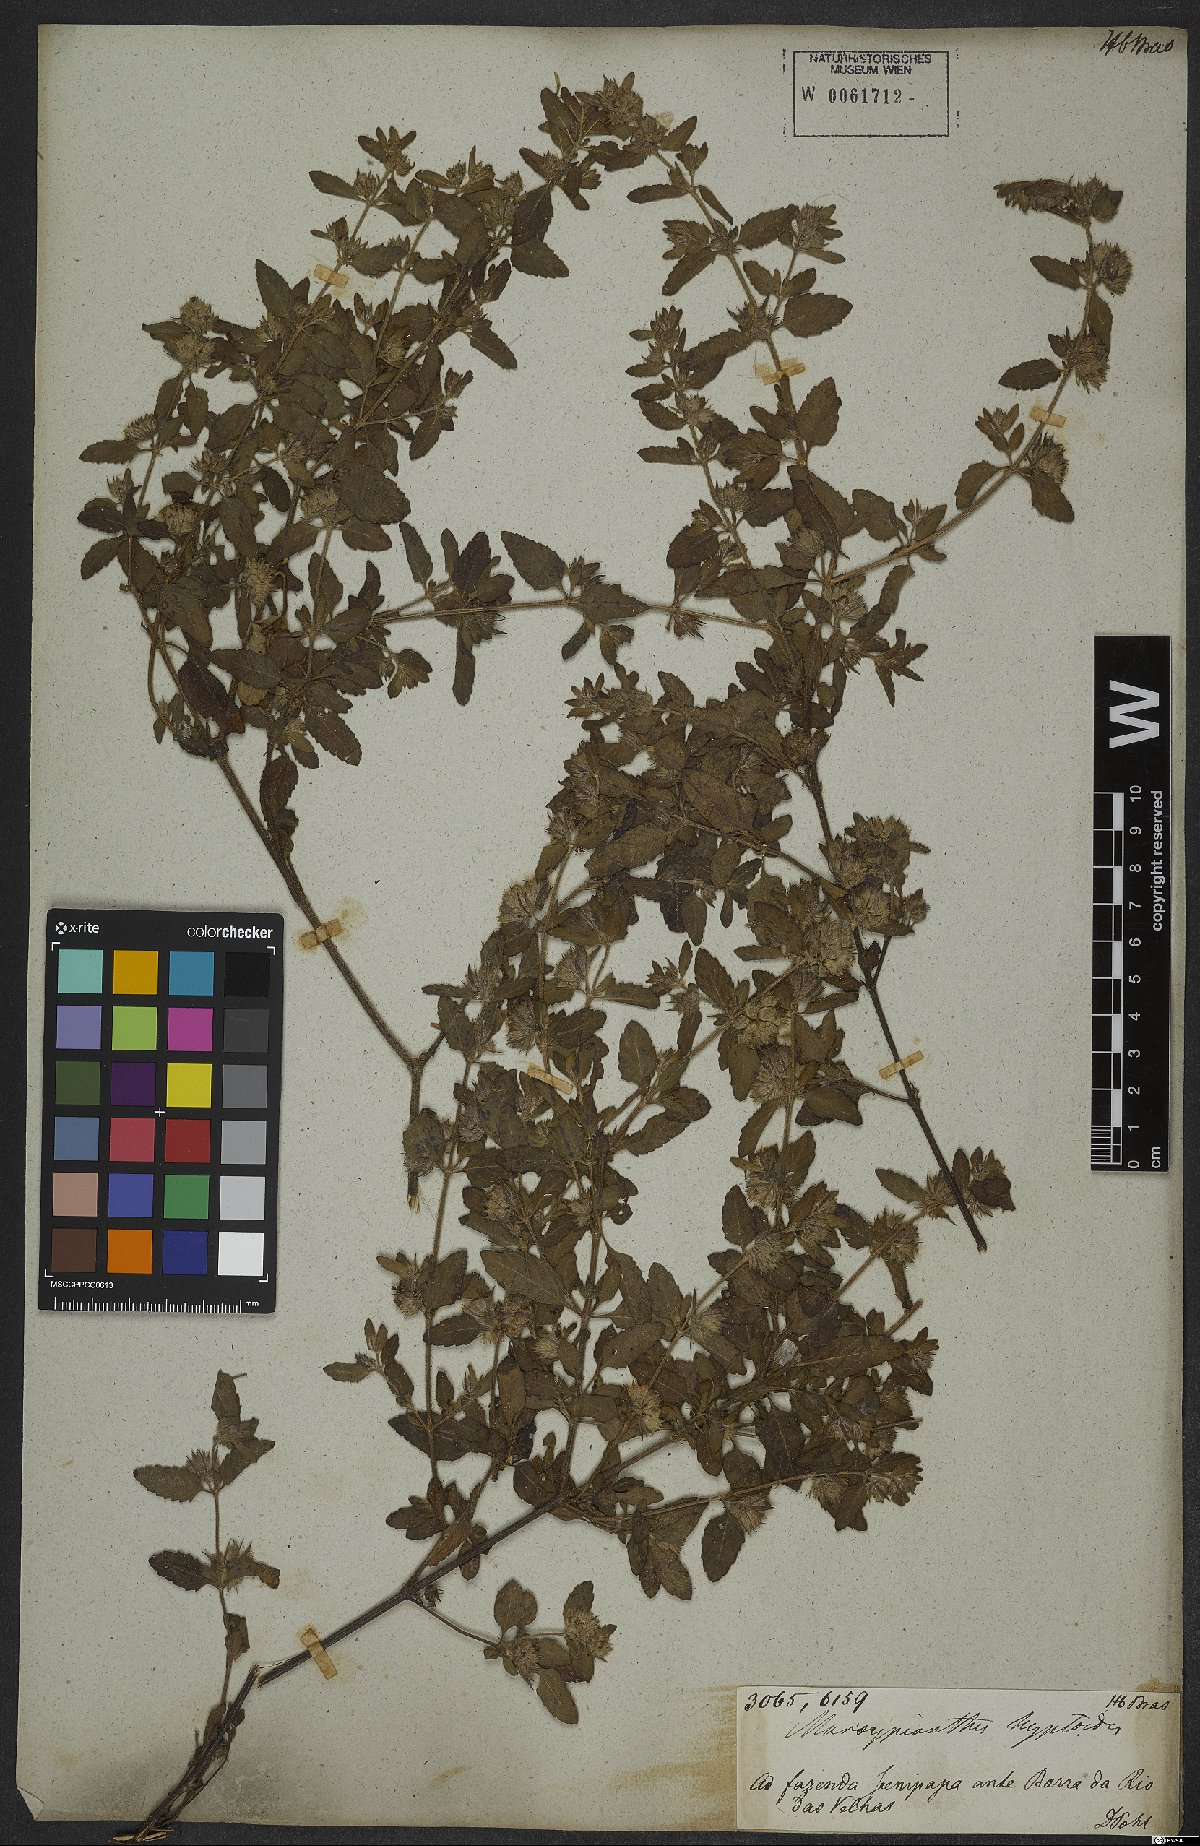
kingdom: Plantae
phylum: Tracheophyta
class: Magnoliopsida
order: Lamiales
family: Lamiaceae
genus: Marsypianthes
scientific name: Marsypianthes chamaedrys
